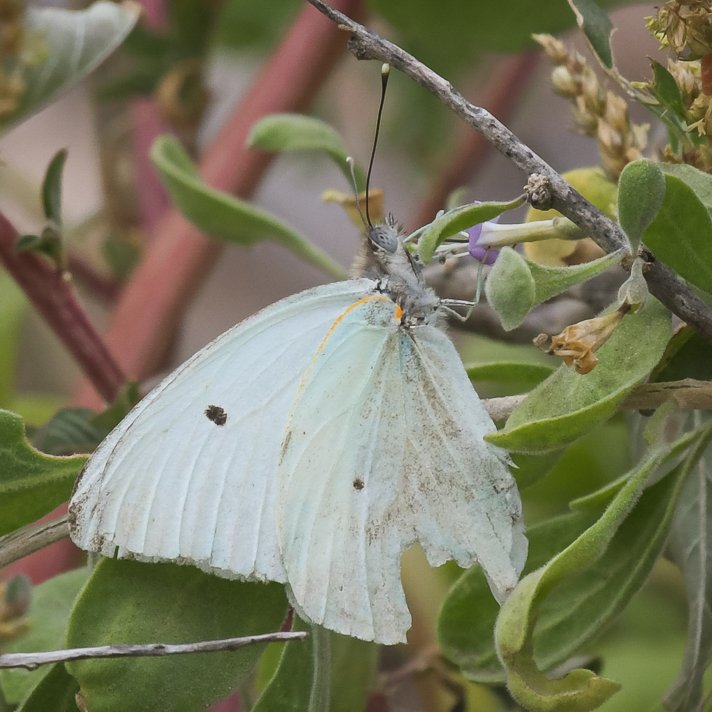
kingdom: Animalia
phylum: Arthropoda
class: Insecta
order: Lepidoptera
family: Pieridae
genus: Ganyra
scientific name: Ganyra howarthi
